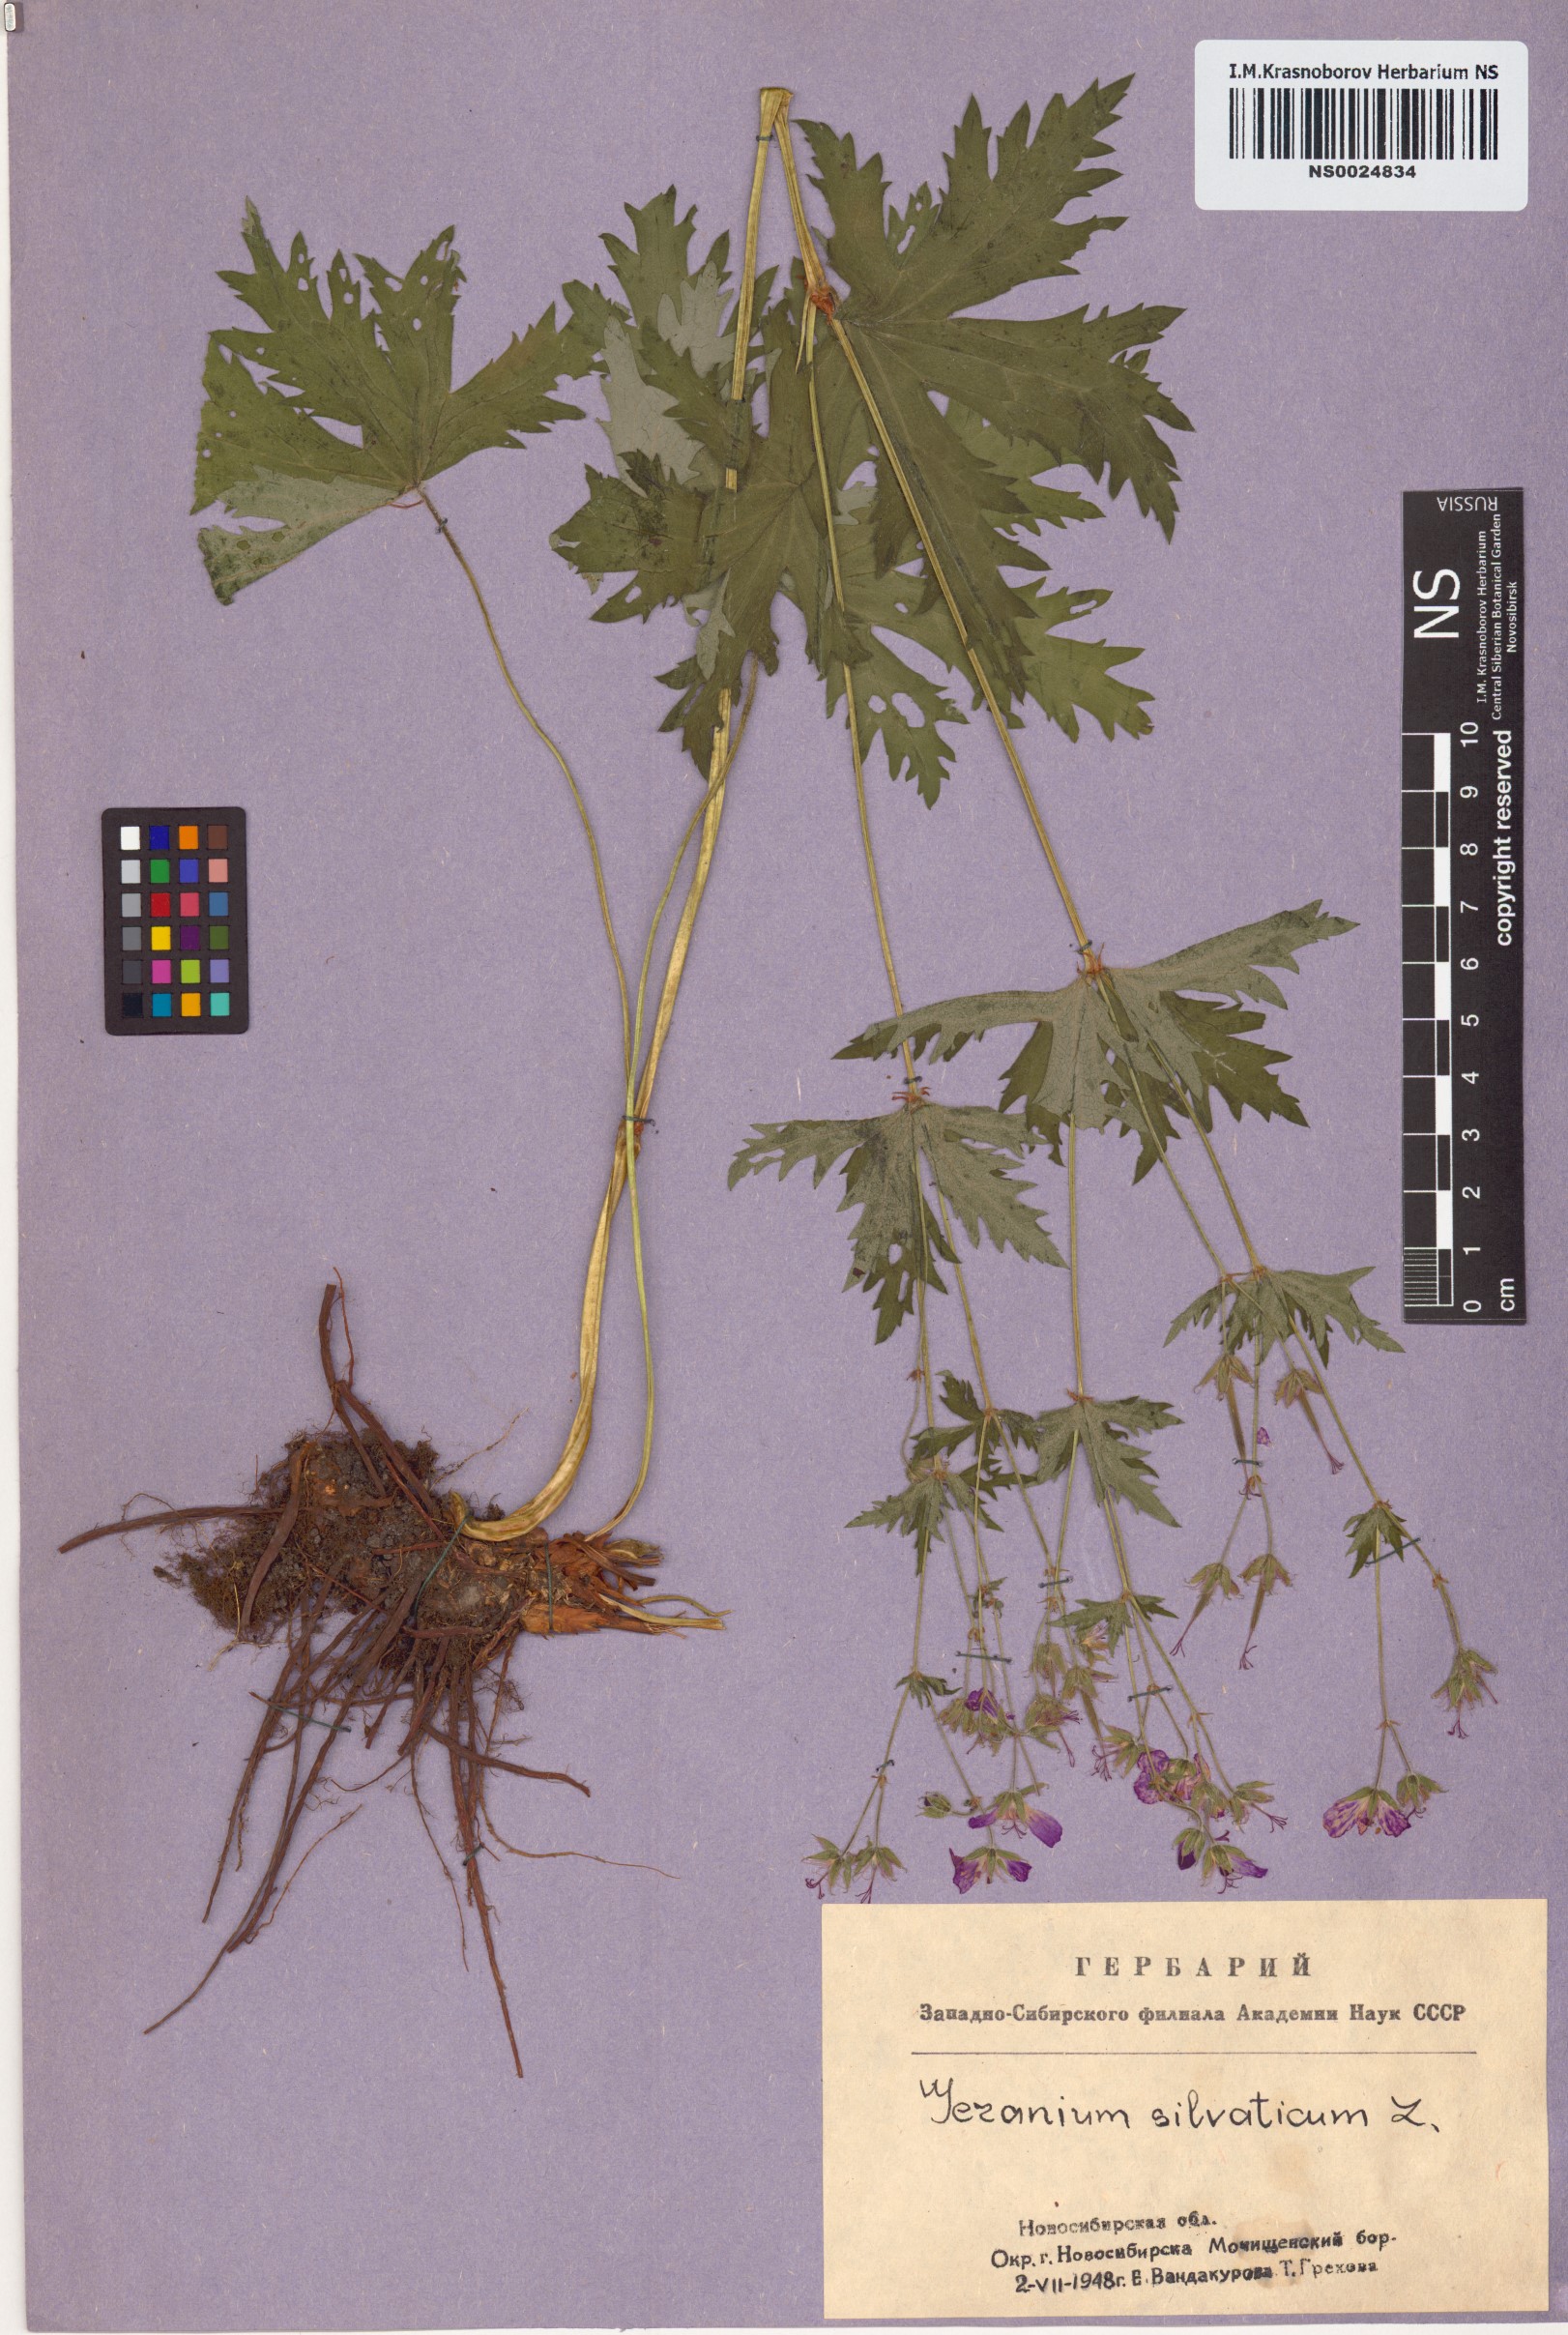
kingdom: Plantae
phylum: Tracheophyta
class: Magnoliopsida
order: Geraniales
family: Geraniaceae
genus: Geranium
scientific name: Geranium sylvaticum
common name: Wood crane's-bill
